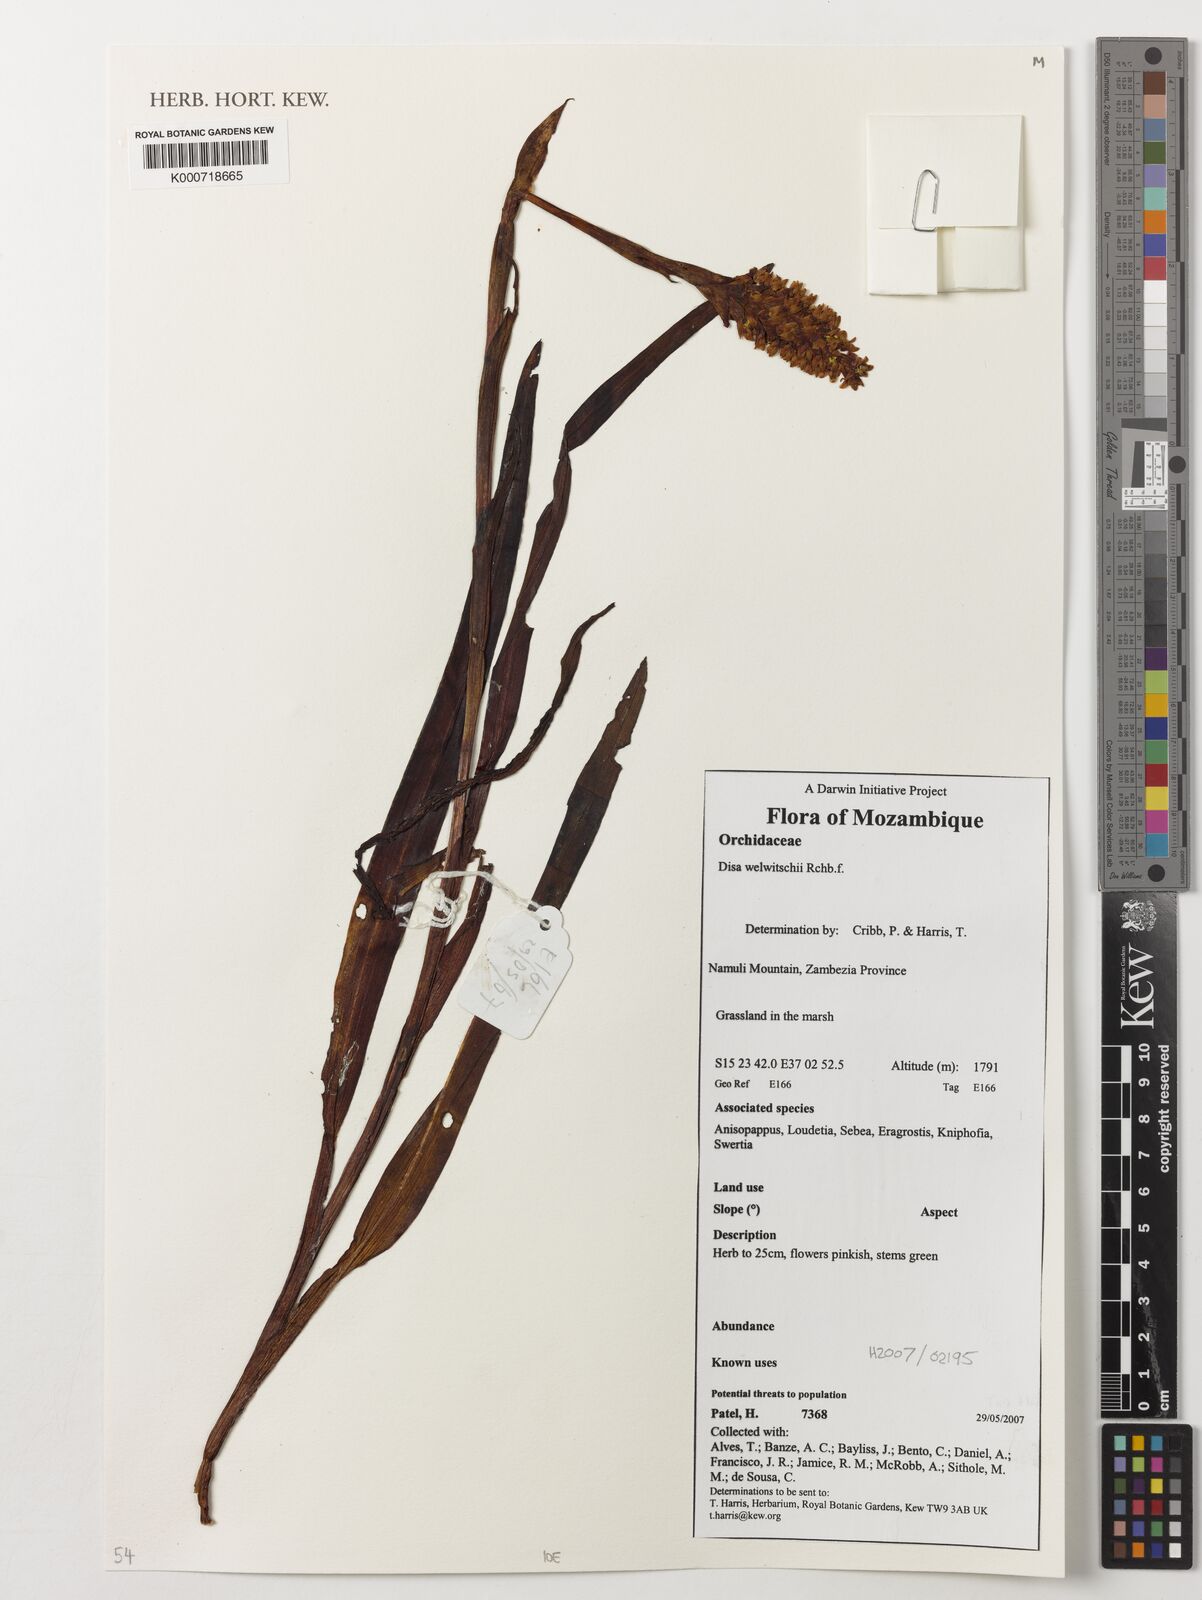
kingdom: Plantae
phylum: Tracheophyta
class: Liliopsida
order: Asparagales
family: Orchidaceae
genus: Disa
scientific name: Disa welwitschii
